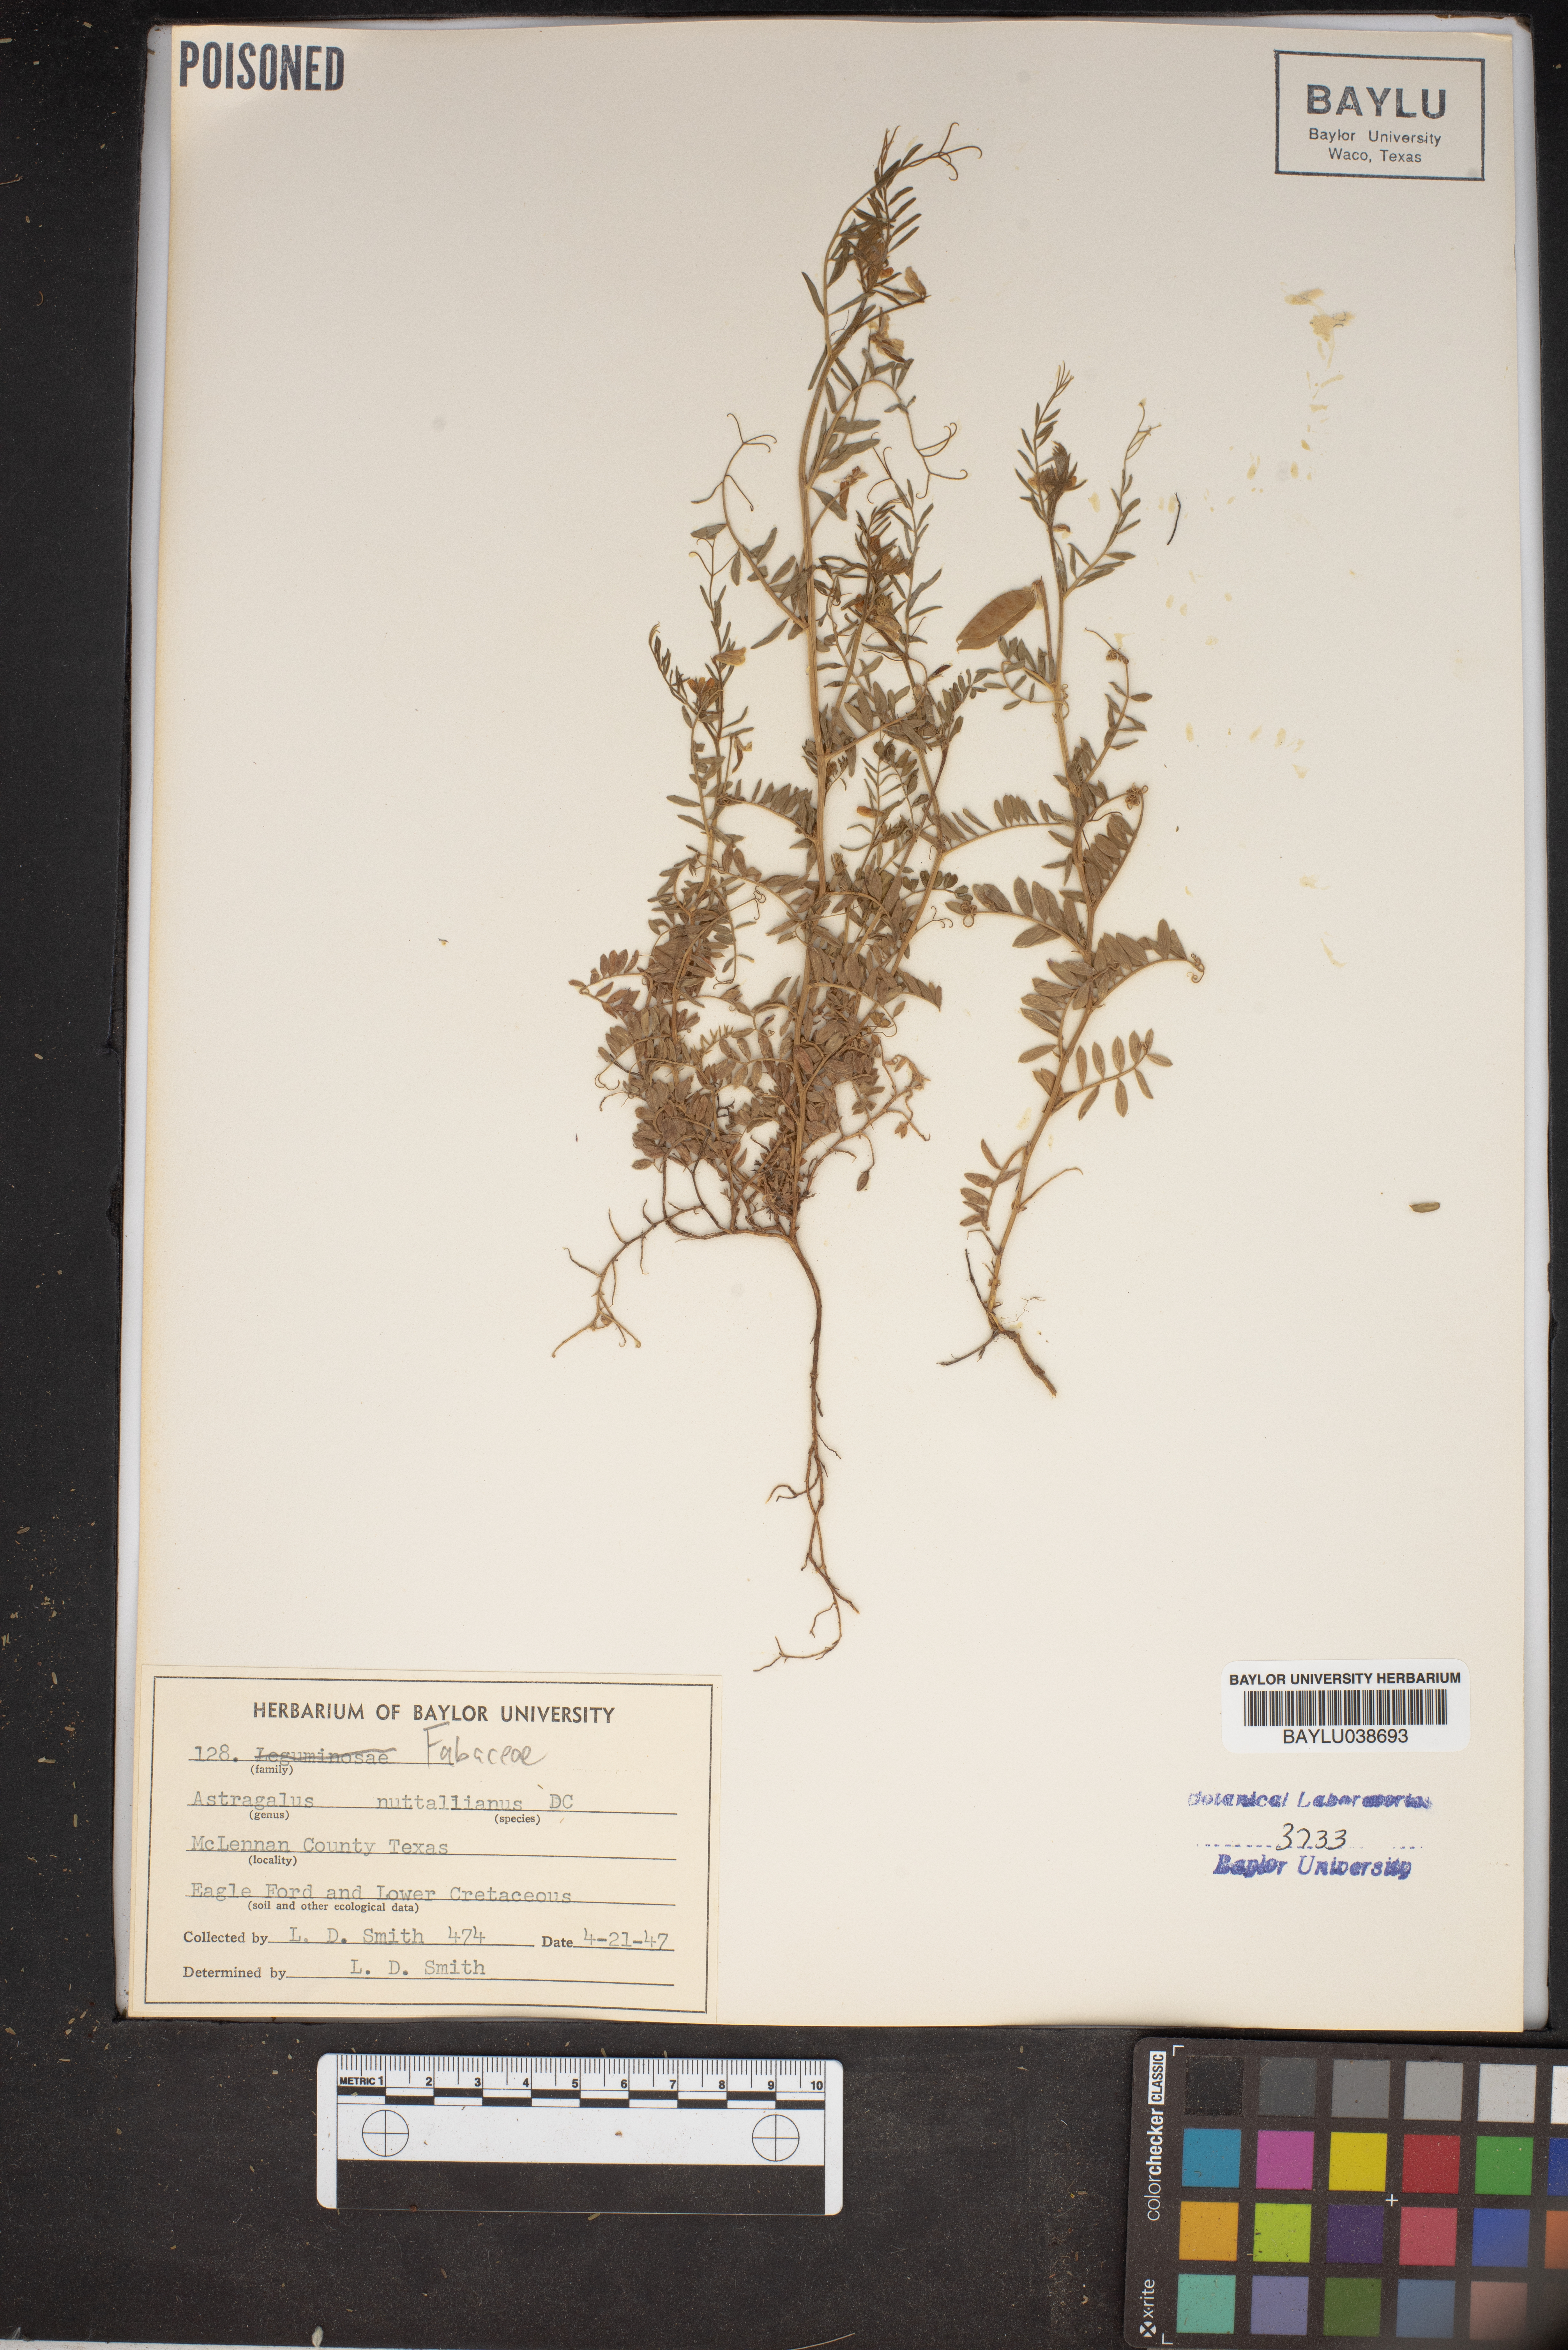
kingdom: Plantae
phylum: Tracheophyta
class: Magnoliopsida
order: Fabales
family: Fabaceae
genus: Astragalus
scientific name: Astragalus nuttallianus
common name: Smallflowered milkvetch
